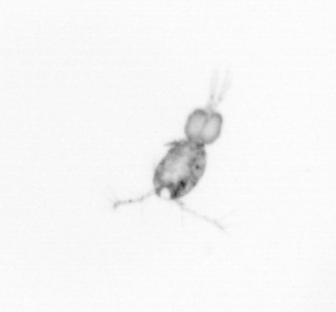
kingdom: Animalia
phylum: Arthropoda
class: Copepoda
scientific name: Copepoda
